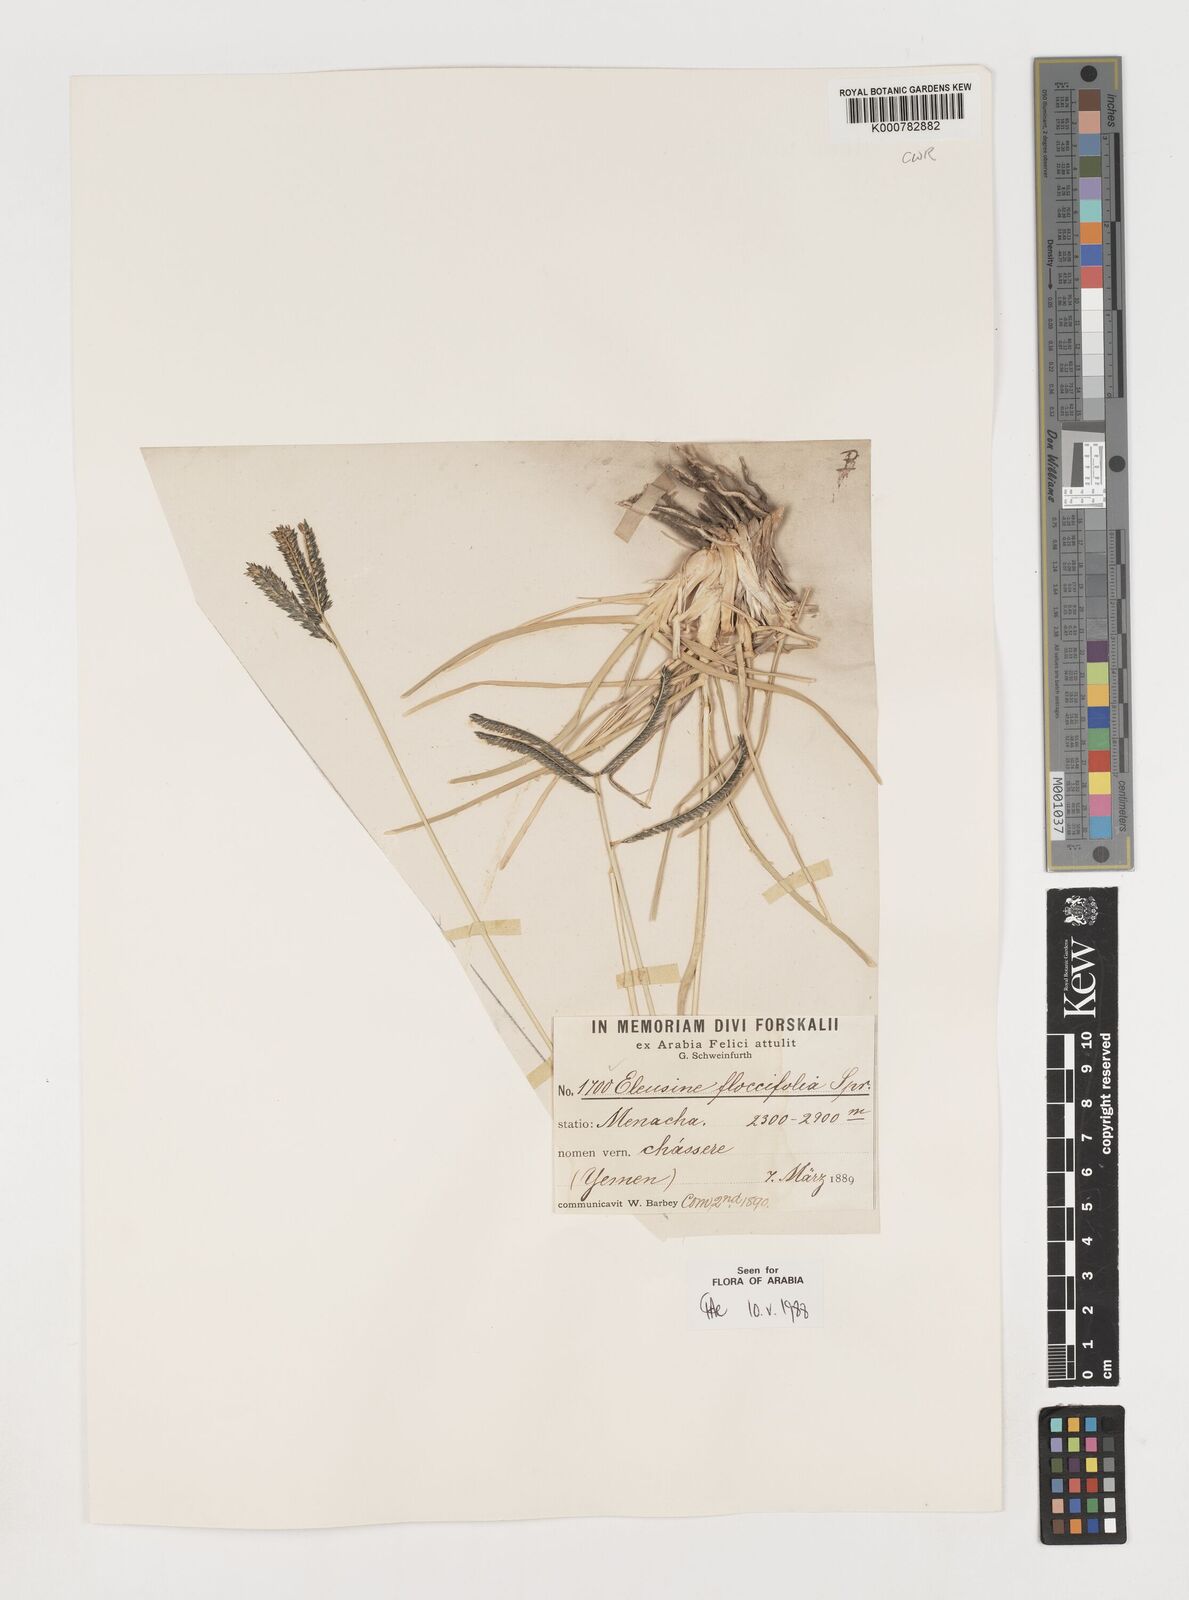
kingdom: Plantae
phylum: Tracheophyta
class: Liliopsida
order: Poales
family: Poaceae
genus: Eleusine
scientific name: Eleusine floccifolia
